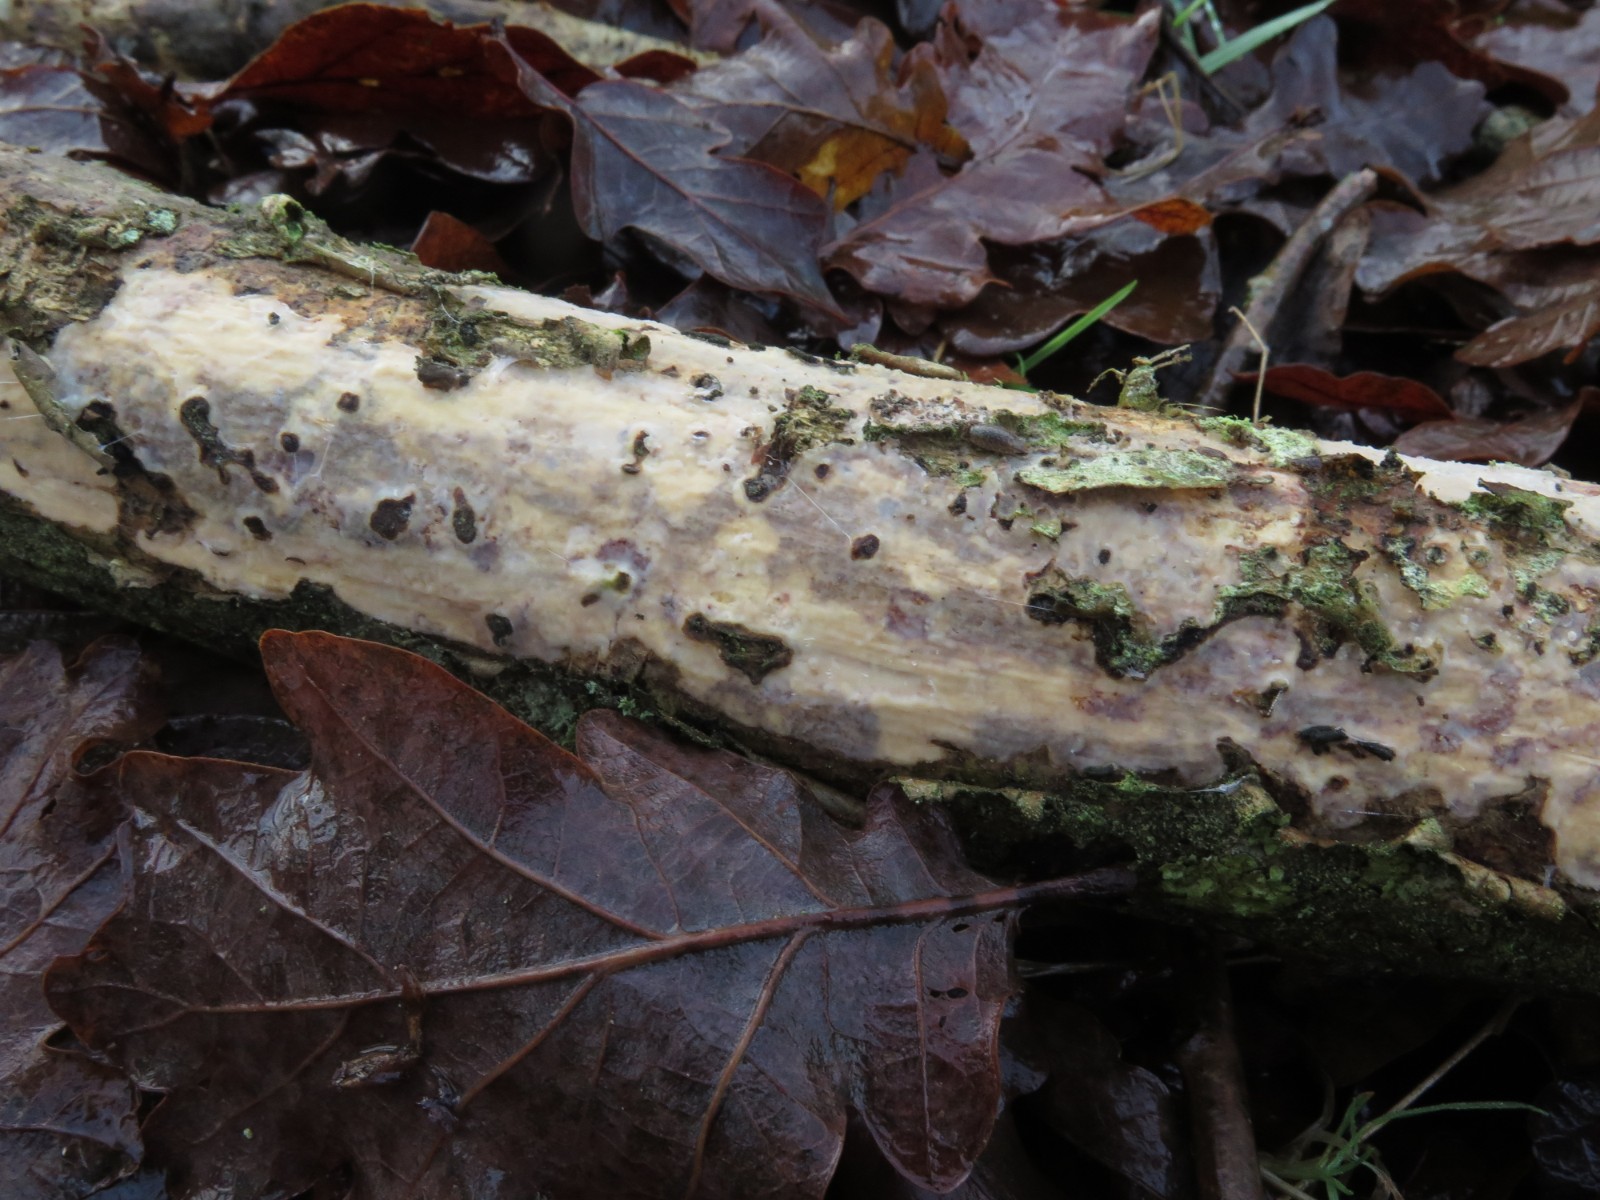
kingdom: Fungi
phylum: Basidiomycota
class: Agaricomycetes
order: Corticiales
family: Vuilleminiaceae
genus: Vuilleminia
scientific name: Vuilleminia comedens
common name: almindelig barksprænger
